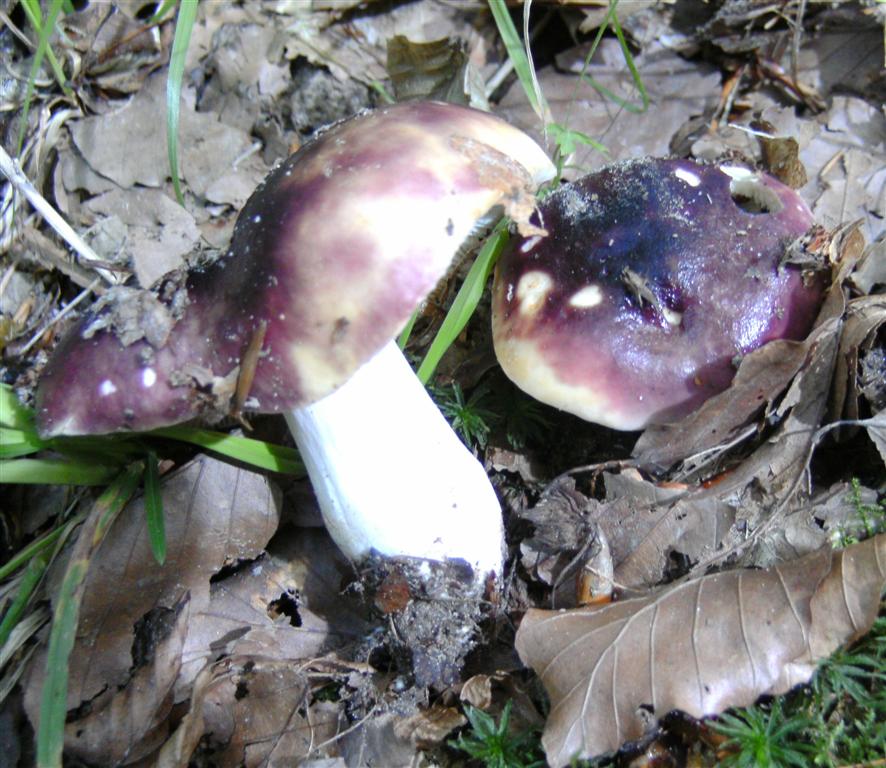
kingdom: Fungi
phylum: Basidiomycota
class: Agaricomycetes
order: Russulales
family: Russulaceae
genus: Russula
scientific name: Russula atropurpurea
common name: purpurbroget skørhat
